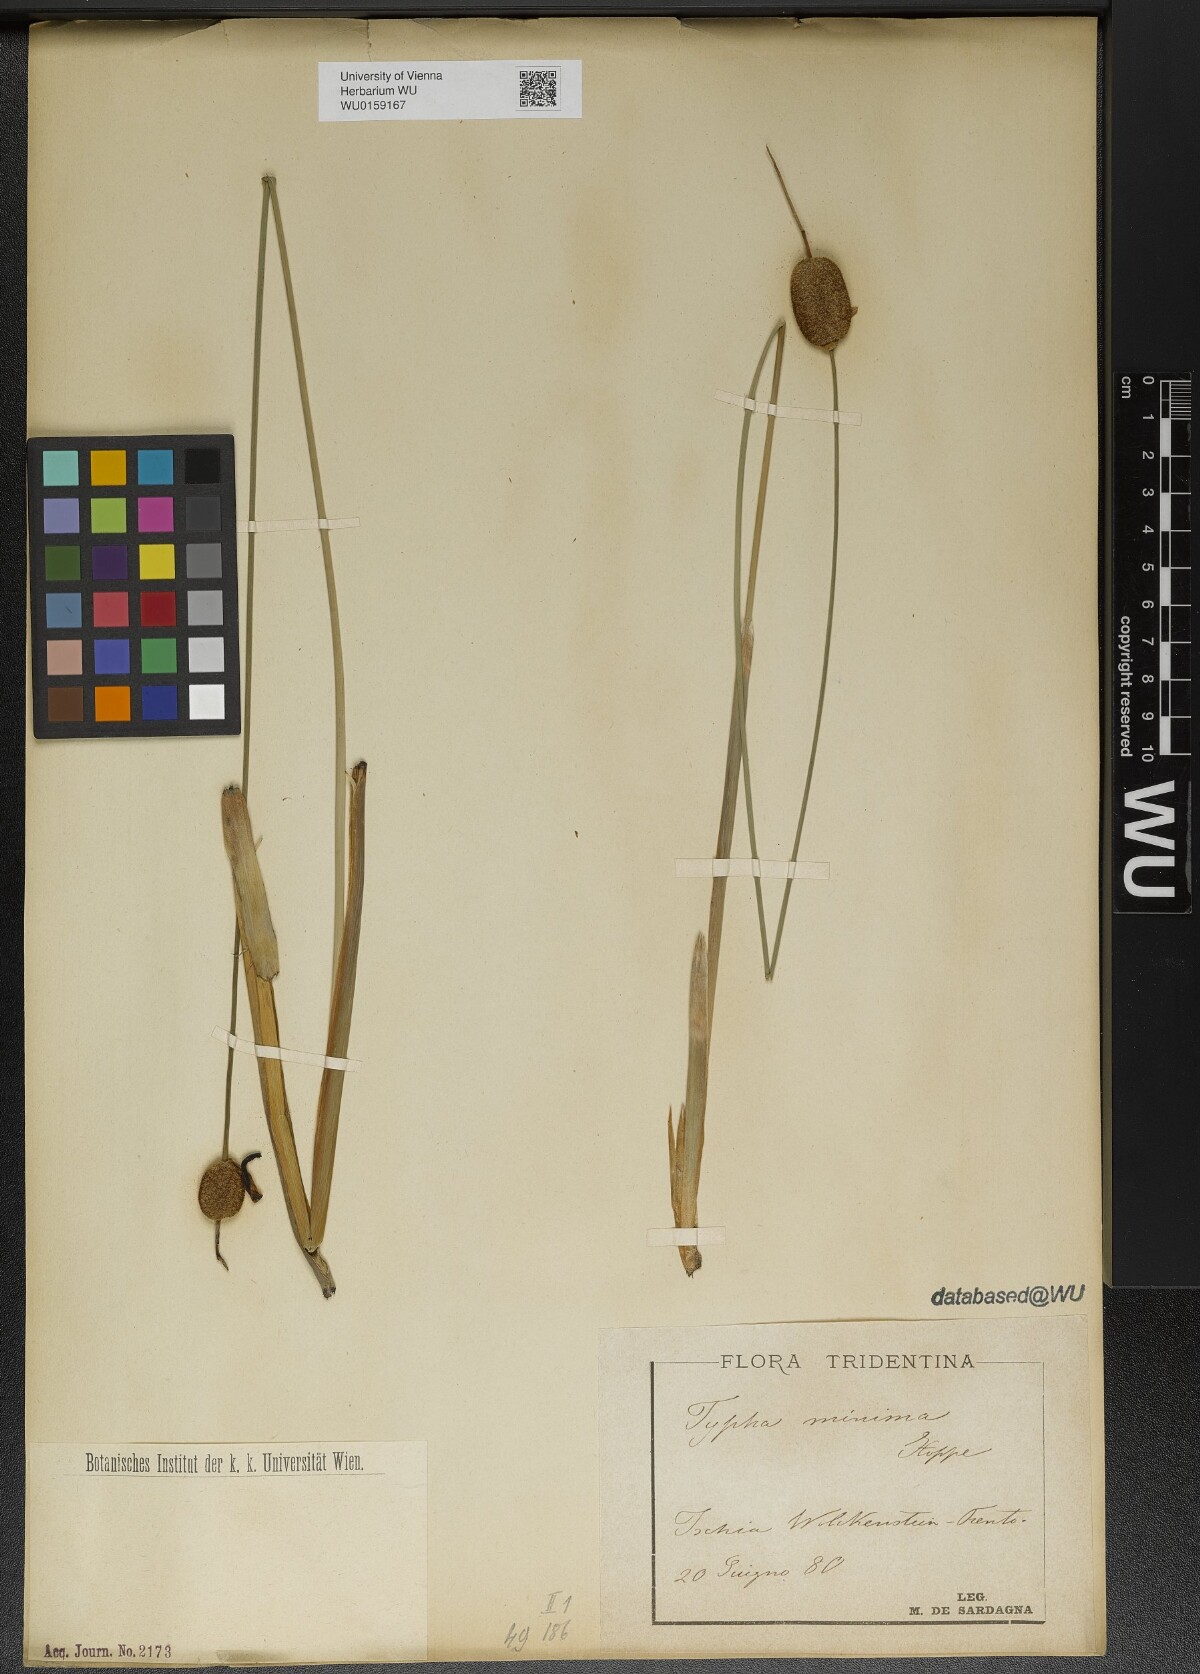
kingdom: Plantae
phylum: Tracheophyta
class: Liliopsida
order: Poales
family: Typhaceae
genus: Typha
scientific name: Typha minima
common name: Dwarf bulrush
